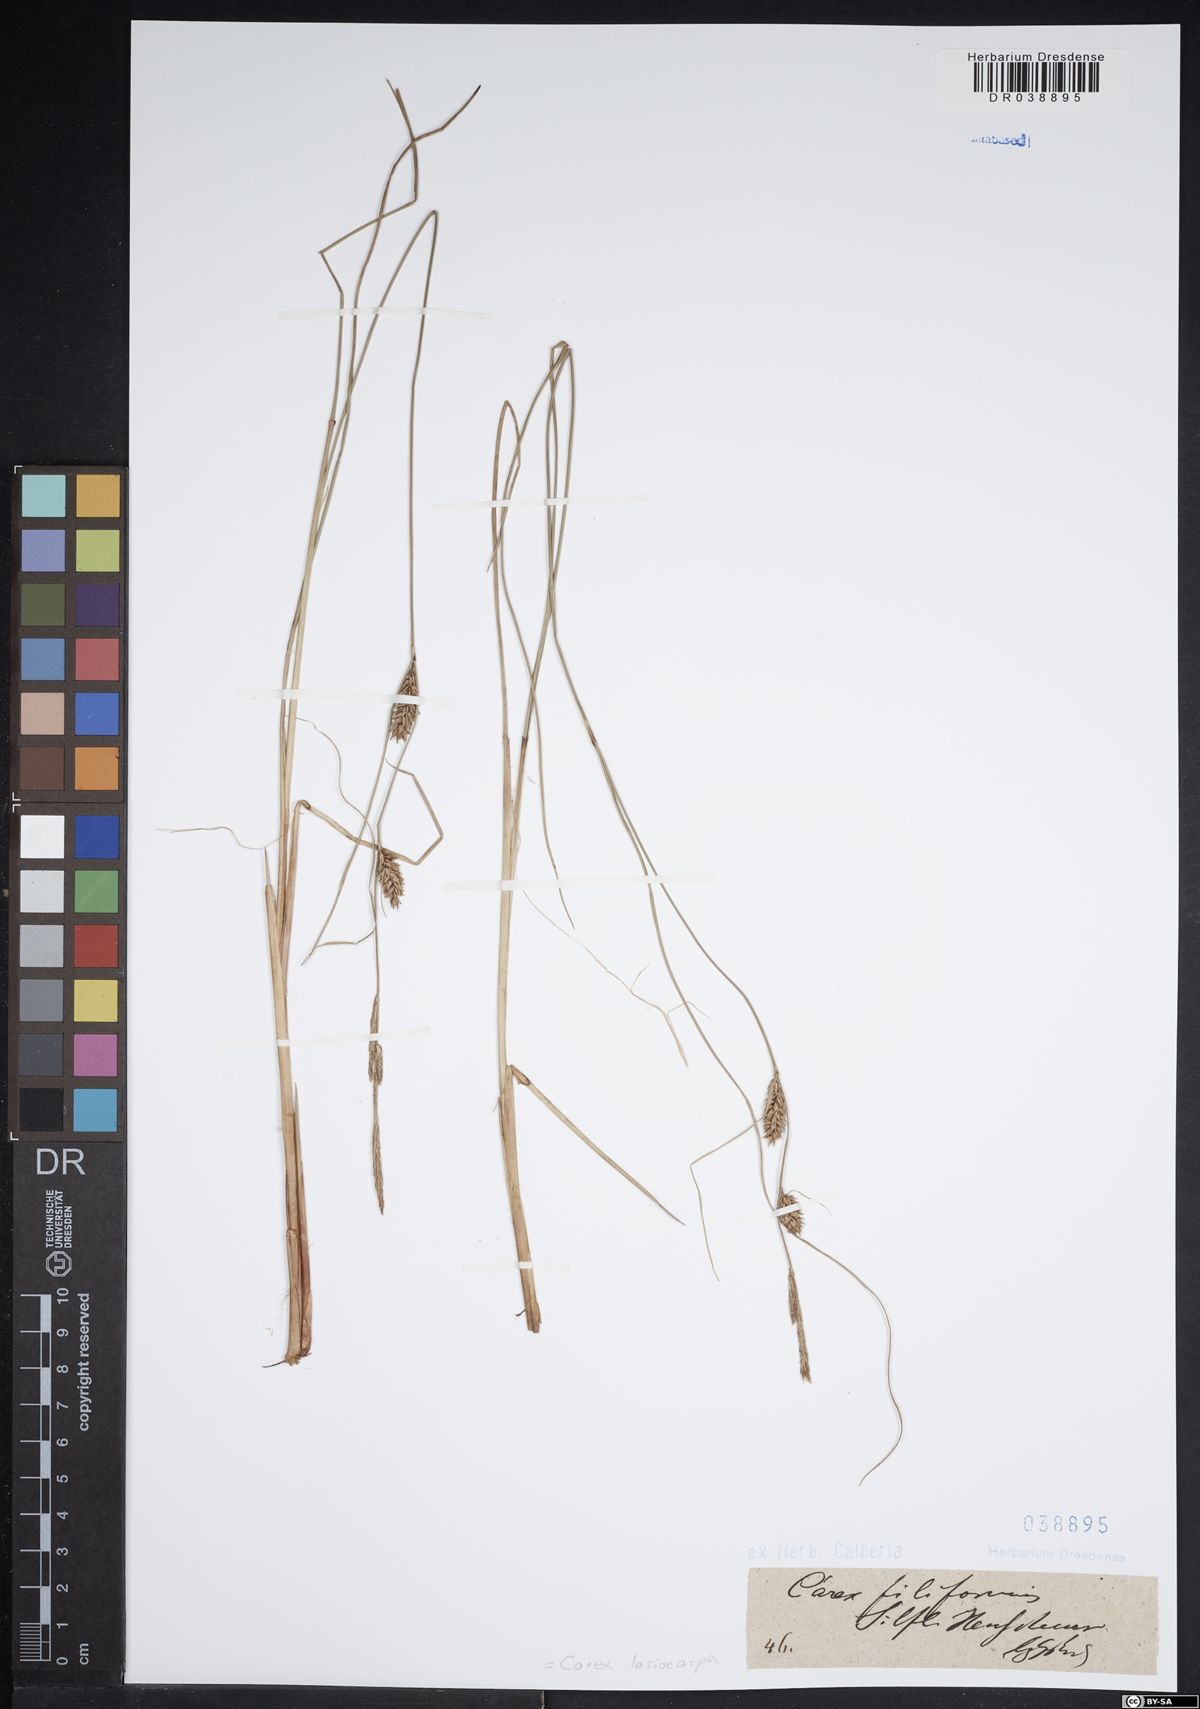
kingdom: Plantae
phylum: Tracheophyta
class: Liliopsida
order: Poales
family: Cyperaceae
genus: Carex
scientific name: Carex lasiocarpa
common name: Slender sedge
